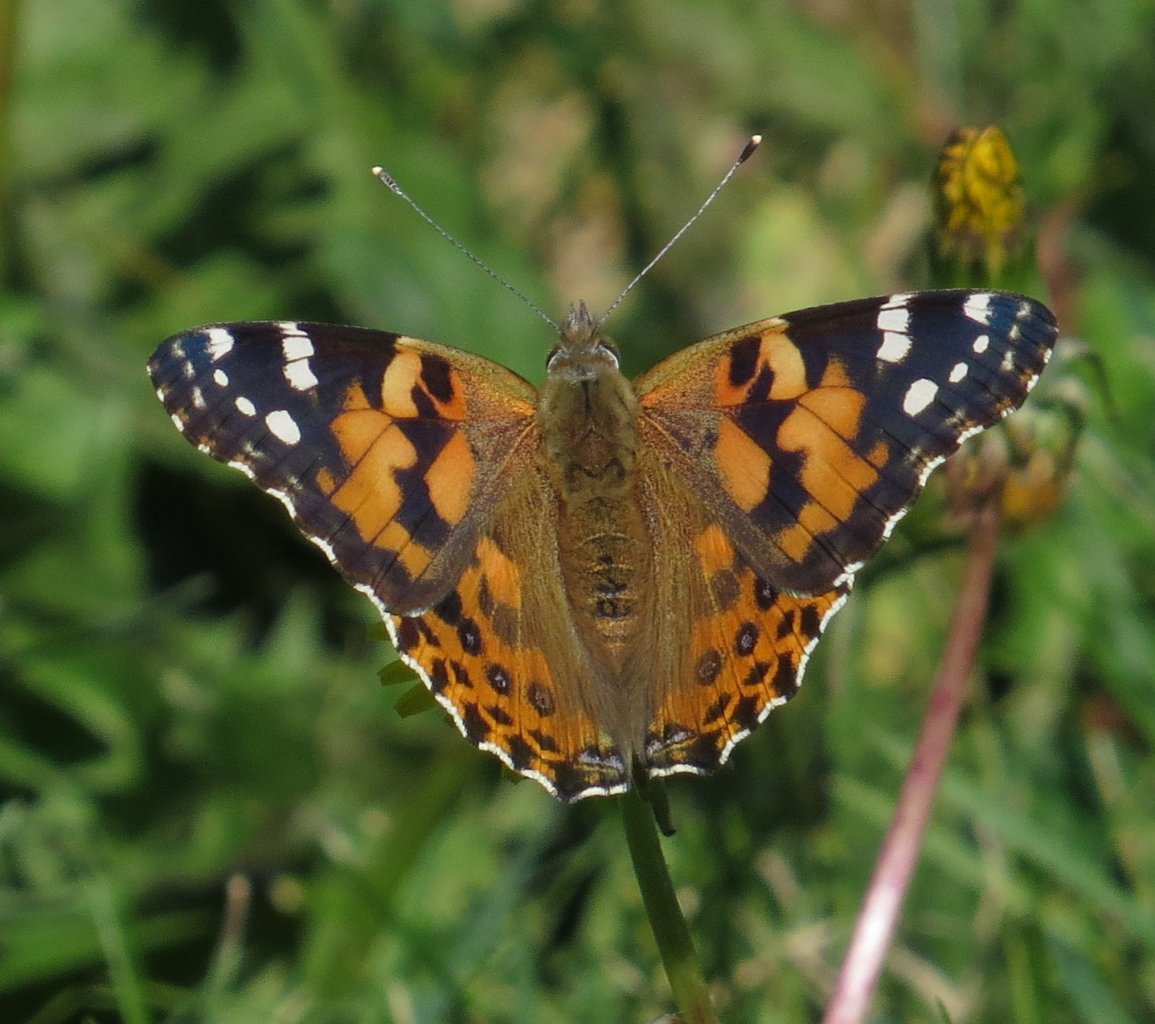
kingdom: Animalia
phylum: Arthropoda
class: Insecta
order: Lepidoptera
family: Nymphalidae
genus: Vanessa
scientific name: Vanessa cardui
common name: Painted Lady
